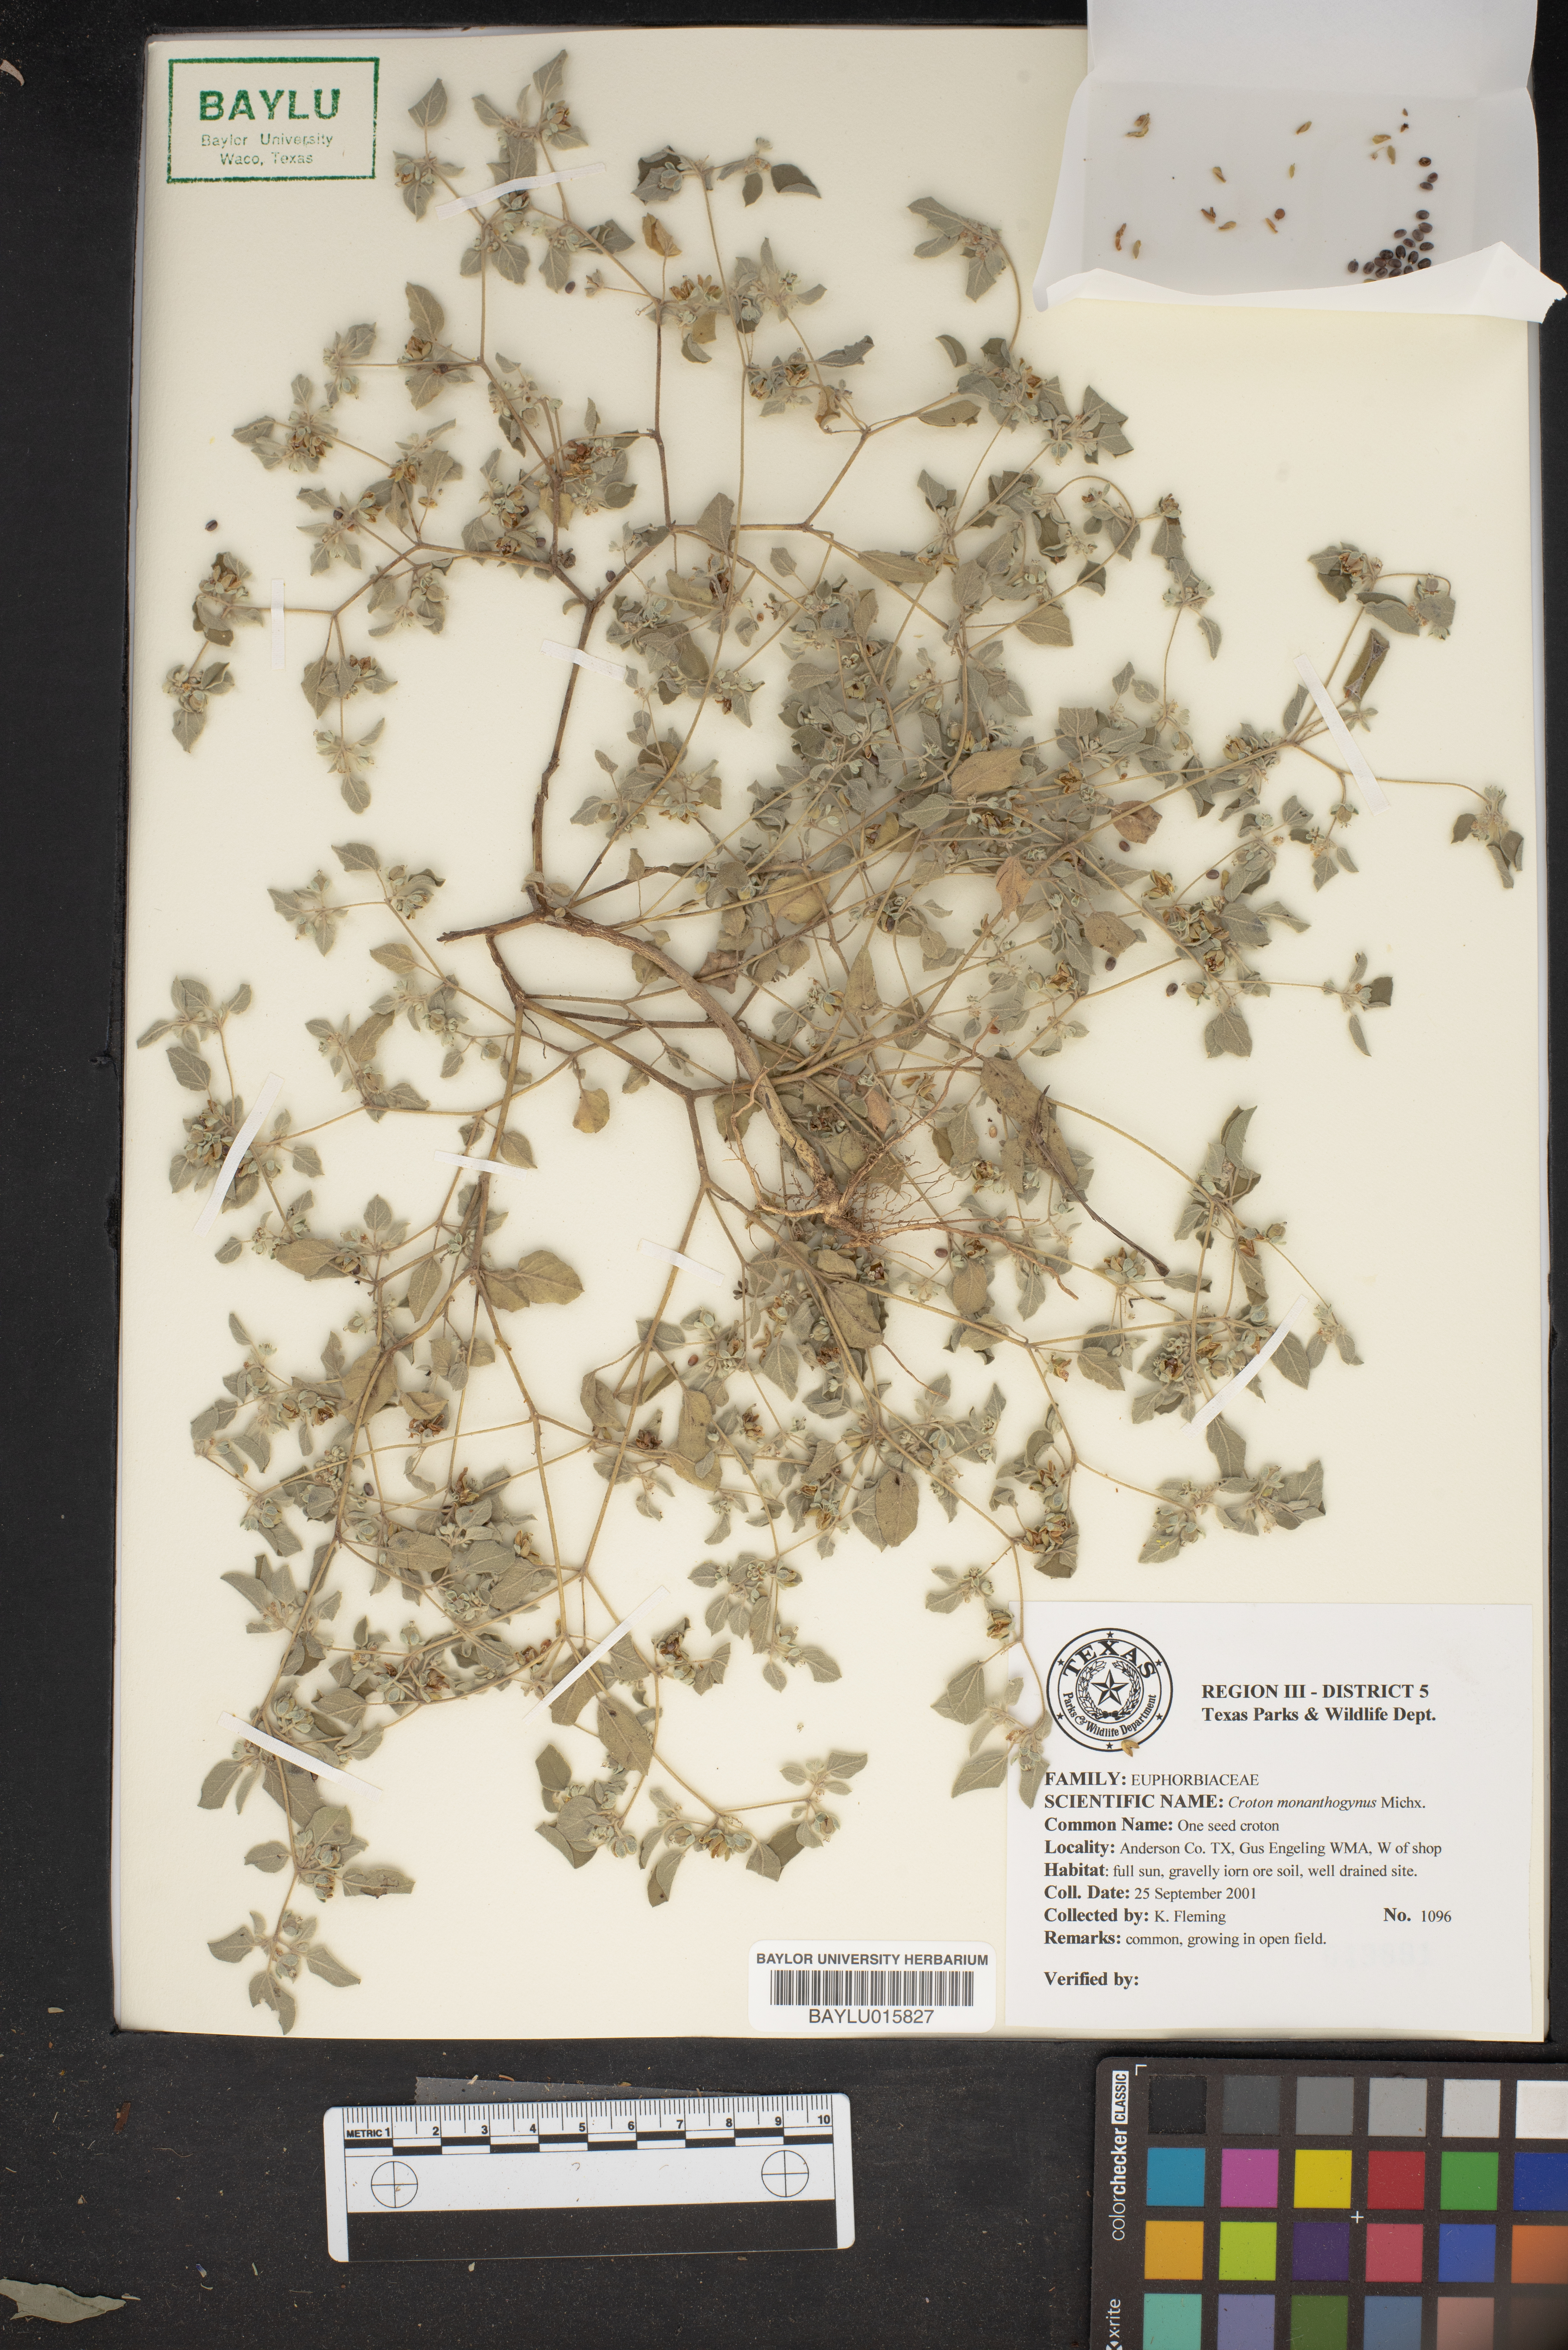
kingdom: Plantae
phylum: Tracheophyta
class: Magnoliopsida
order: Malpighiales
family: Euphorbiaceae
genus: Croton
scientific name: Croton monanthogynus
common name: One-seed croton
